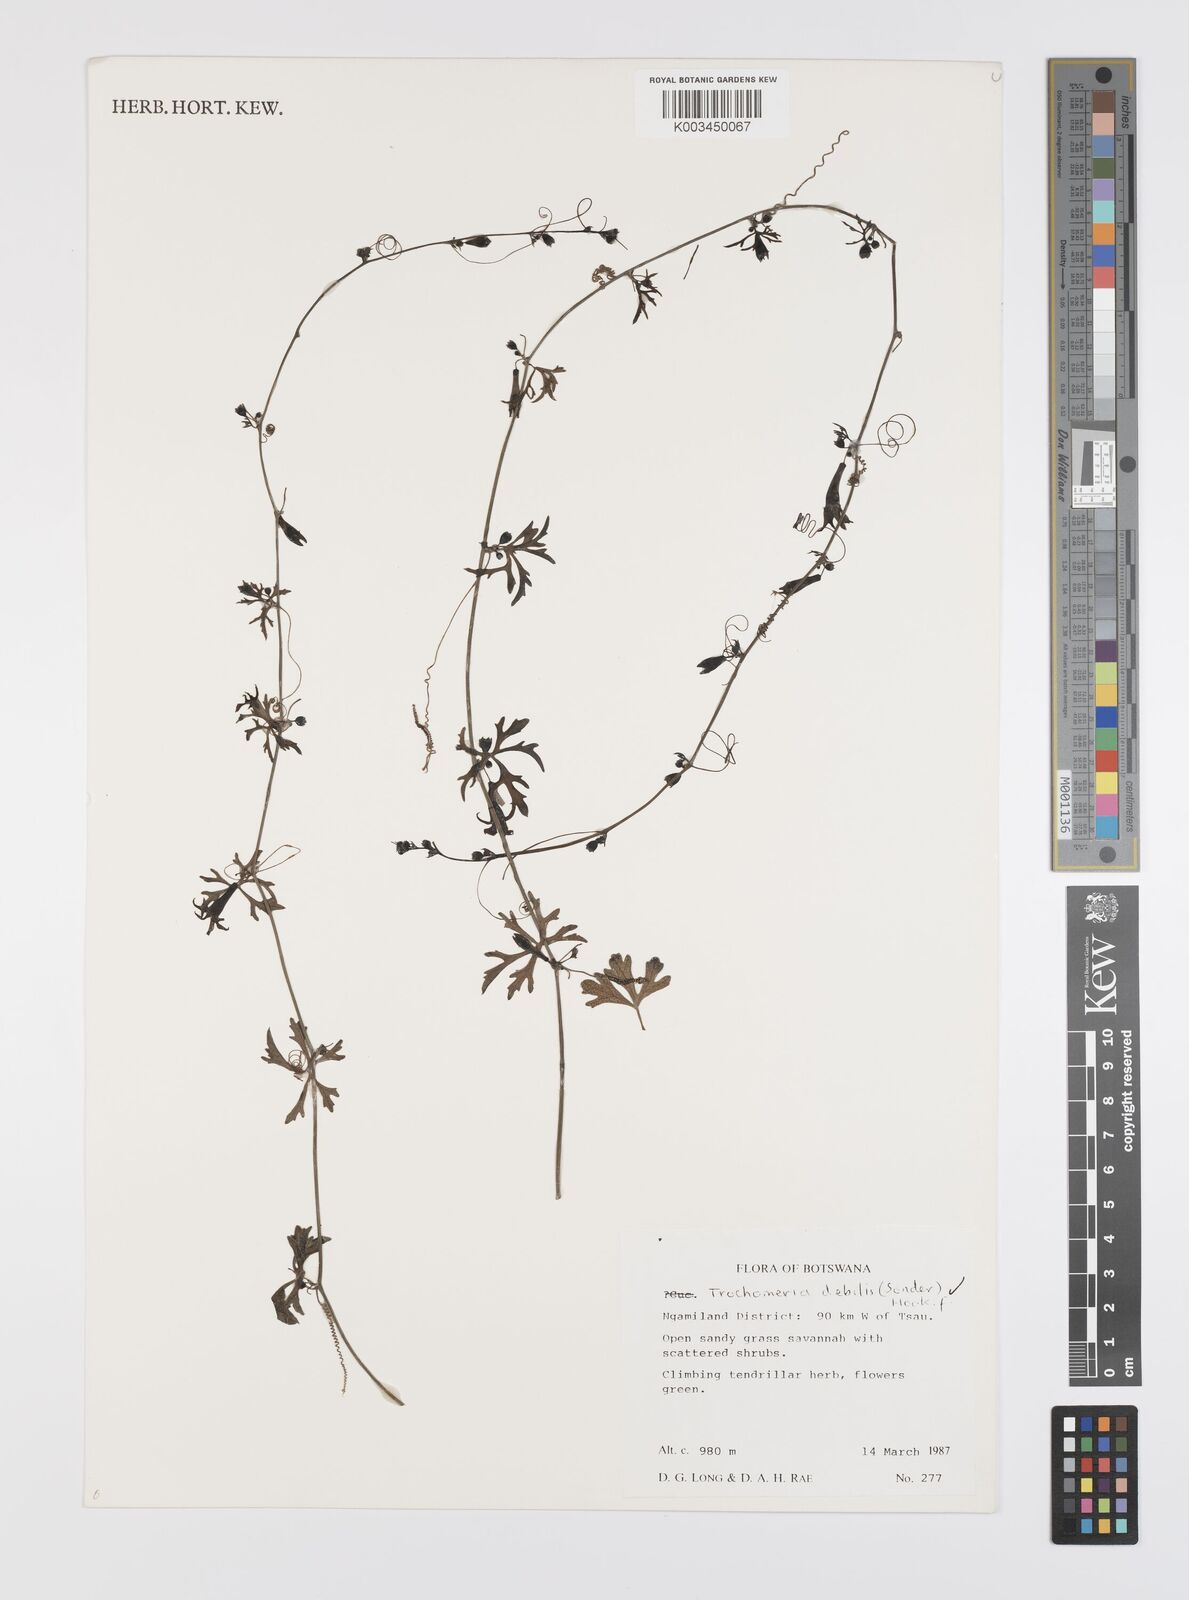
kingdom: Plantae
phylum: Tracheophyta
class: Magnoliopsida
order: Cucurbitales
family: Cucurbitaceae
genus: Trochomeria
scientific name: Trochomeria debilis
